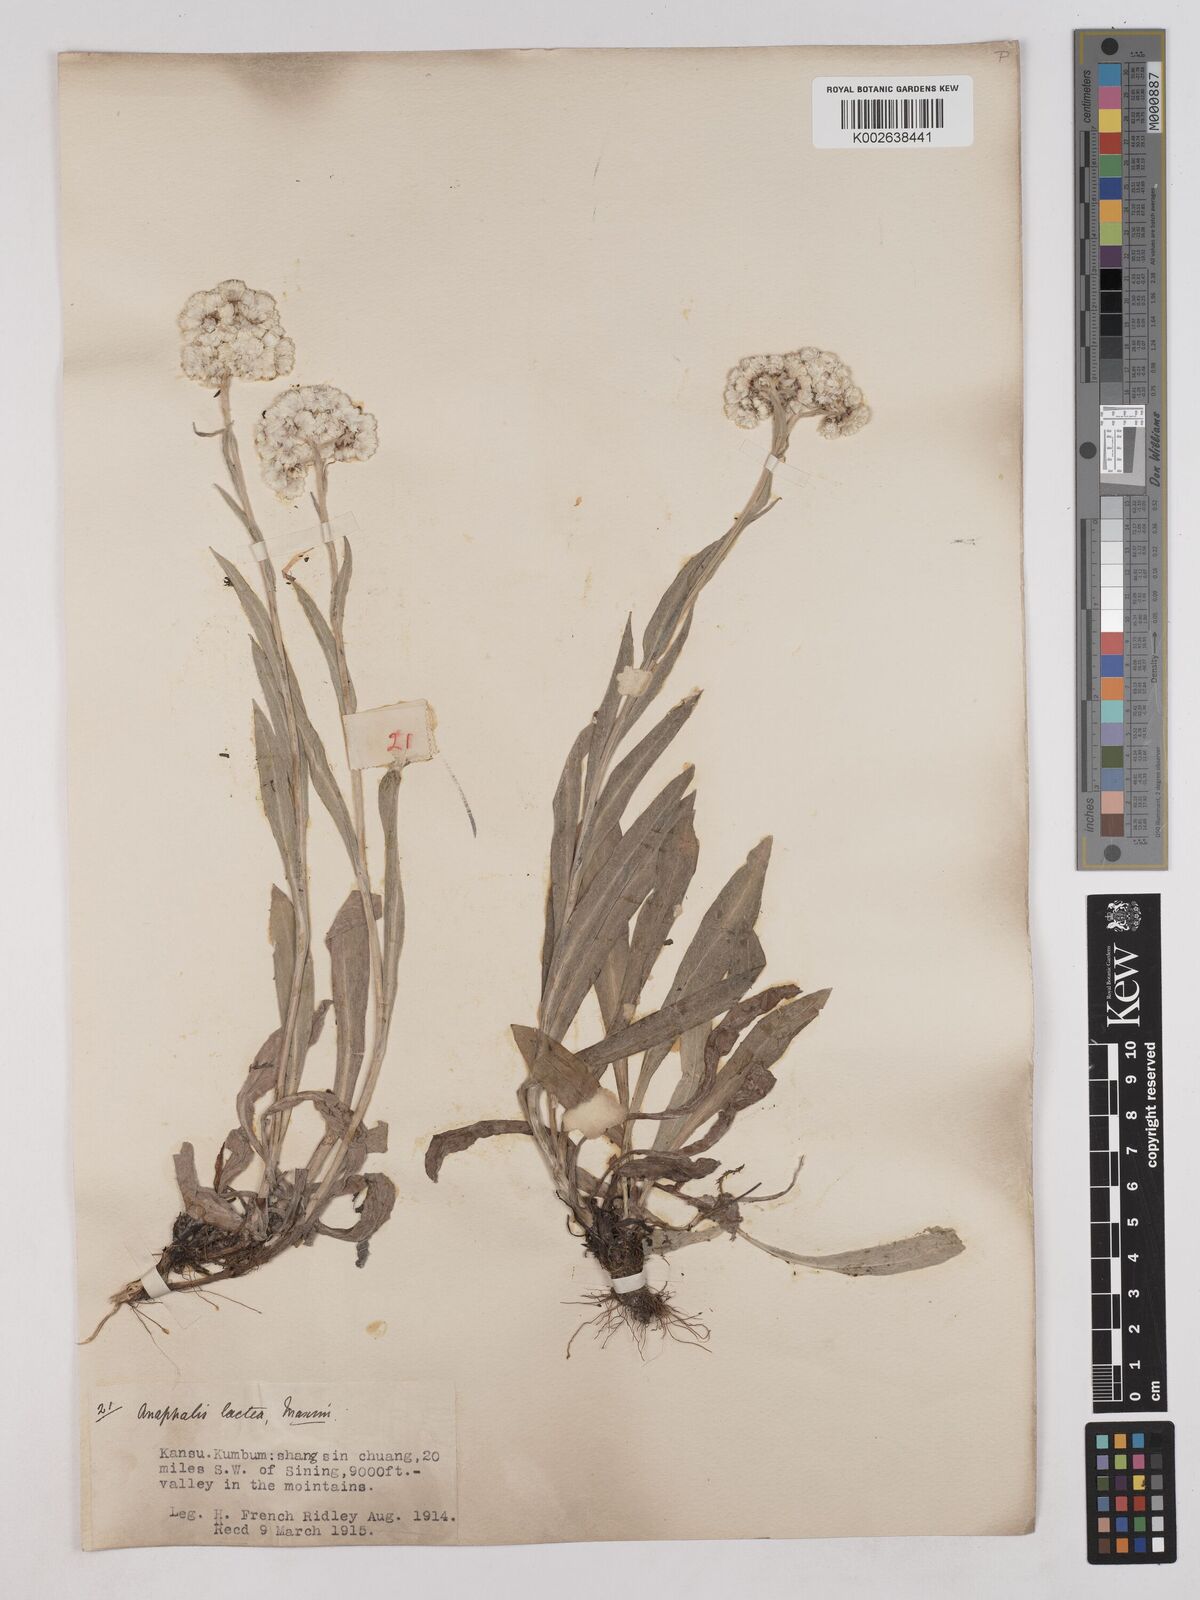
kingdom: Plantae
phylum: Tracheophyta
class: Magnoliopsida
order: Asterales
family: Asteraceae
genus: Anaphalis
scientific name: Anaphalis lactea
